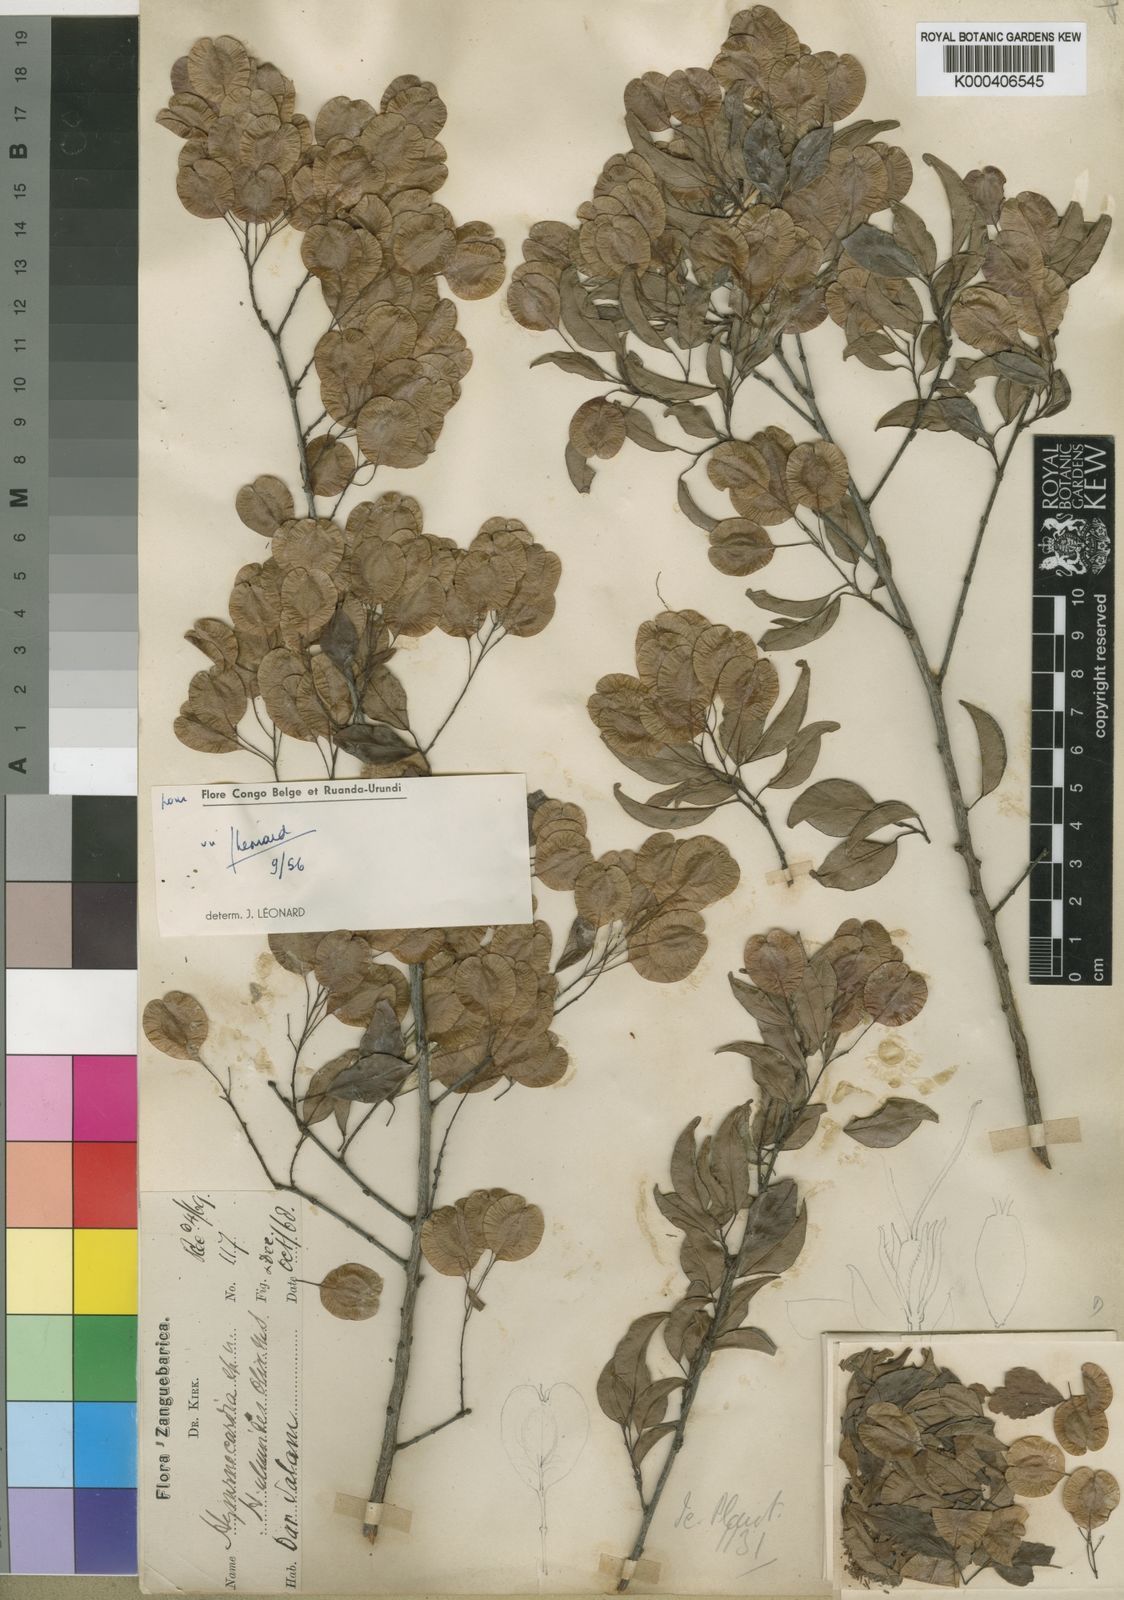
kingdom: Plantae
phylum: Tracheophyta
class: Magnoliopsida
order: Malpighiales
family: Phyllanthaceae
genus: Hymenocardia
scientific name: Hymenocardia ulmoides
